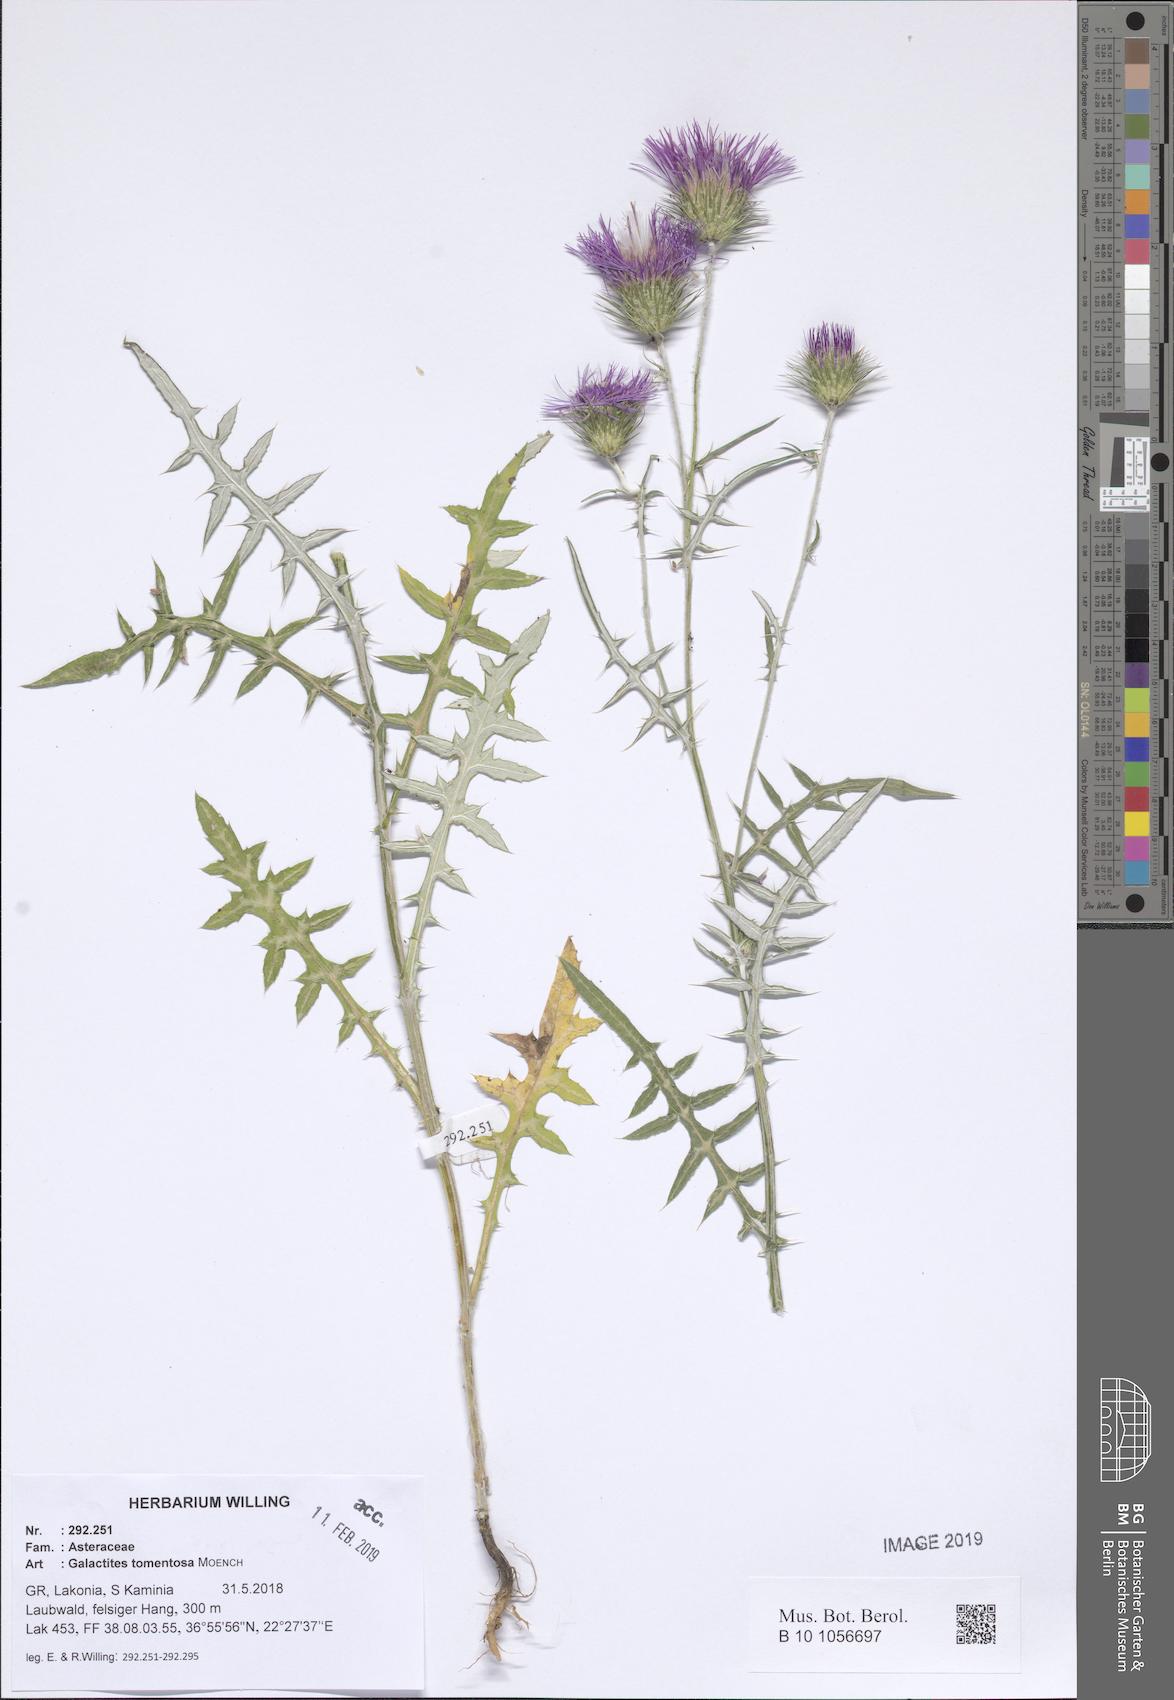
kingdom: Plantae
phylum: Tracheophyta
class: Magnoliopsida
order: Asterales
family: Asteraceae
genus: Galactites
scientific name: Galactites tomentosa
